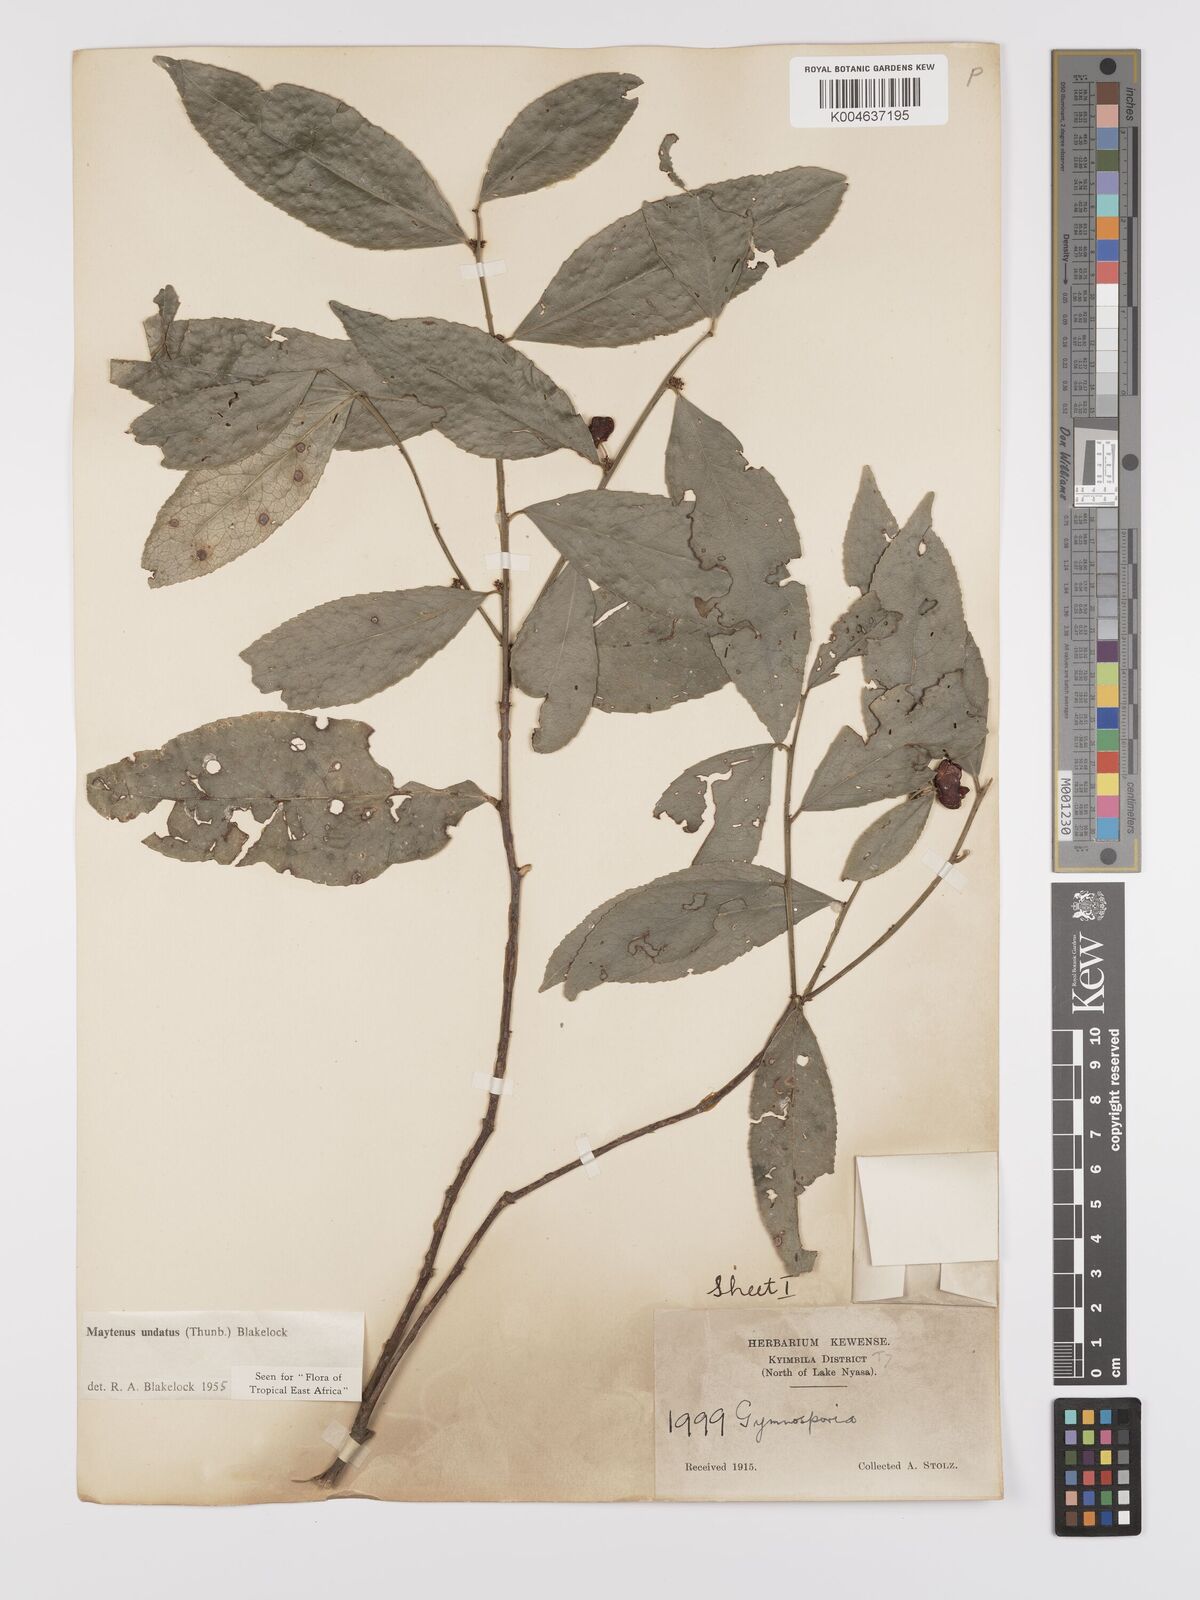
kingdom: Plantae
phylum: Tracheophyta
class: Magnoliopsida
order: Celastrales
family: Celastraceae
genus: Gymnosporia
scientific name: Gymnosporia undata
